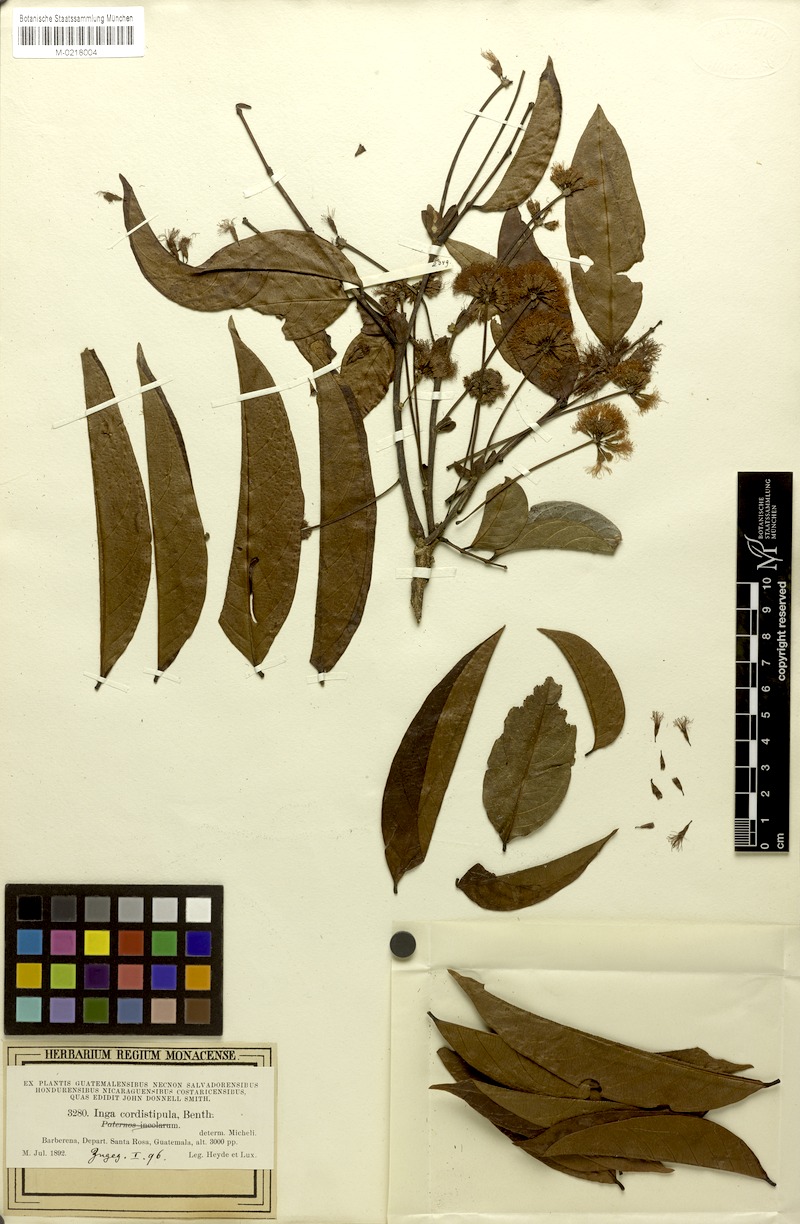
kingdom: Plantae
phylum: Tracheophyta
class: Magnoliopsida
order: Fabales
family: Fabaceae
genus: Inga
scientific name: Inga paterno
